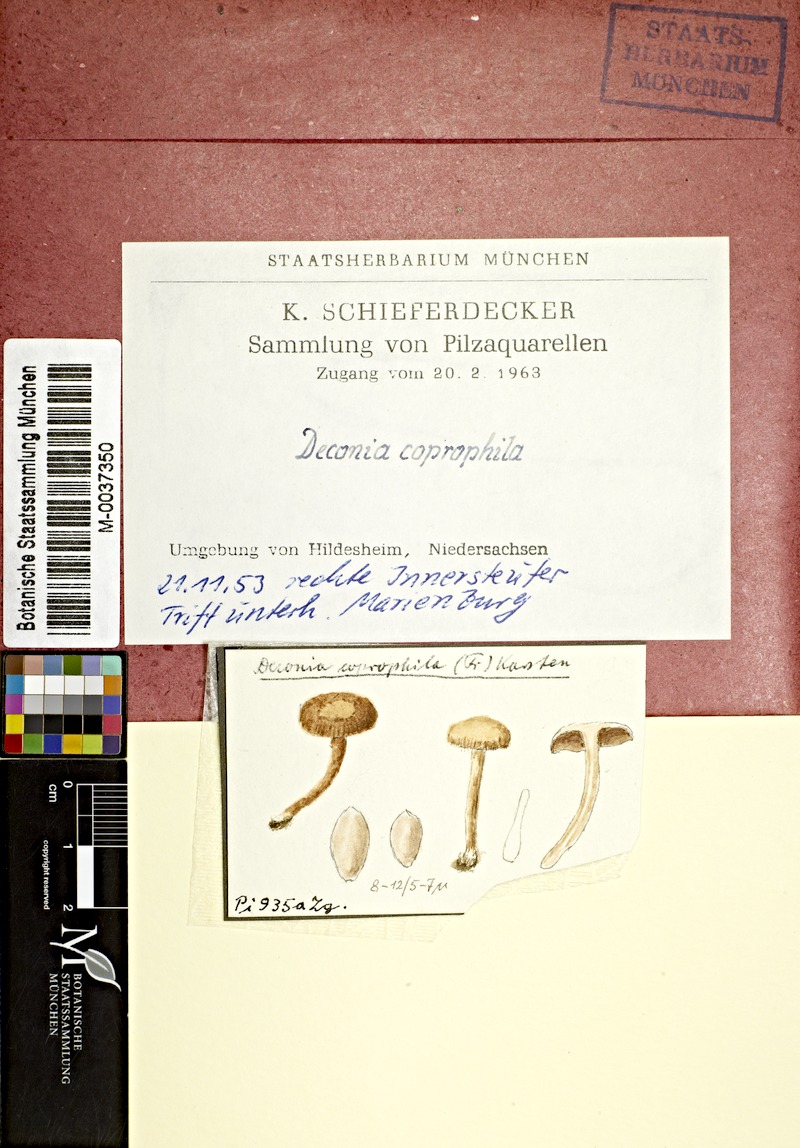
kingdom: Fungi
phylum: Basidiomycota
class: Agaricomycetes
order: Agaricales
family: Strophariaceae
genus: Deconica
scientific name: Deconica coprophila
